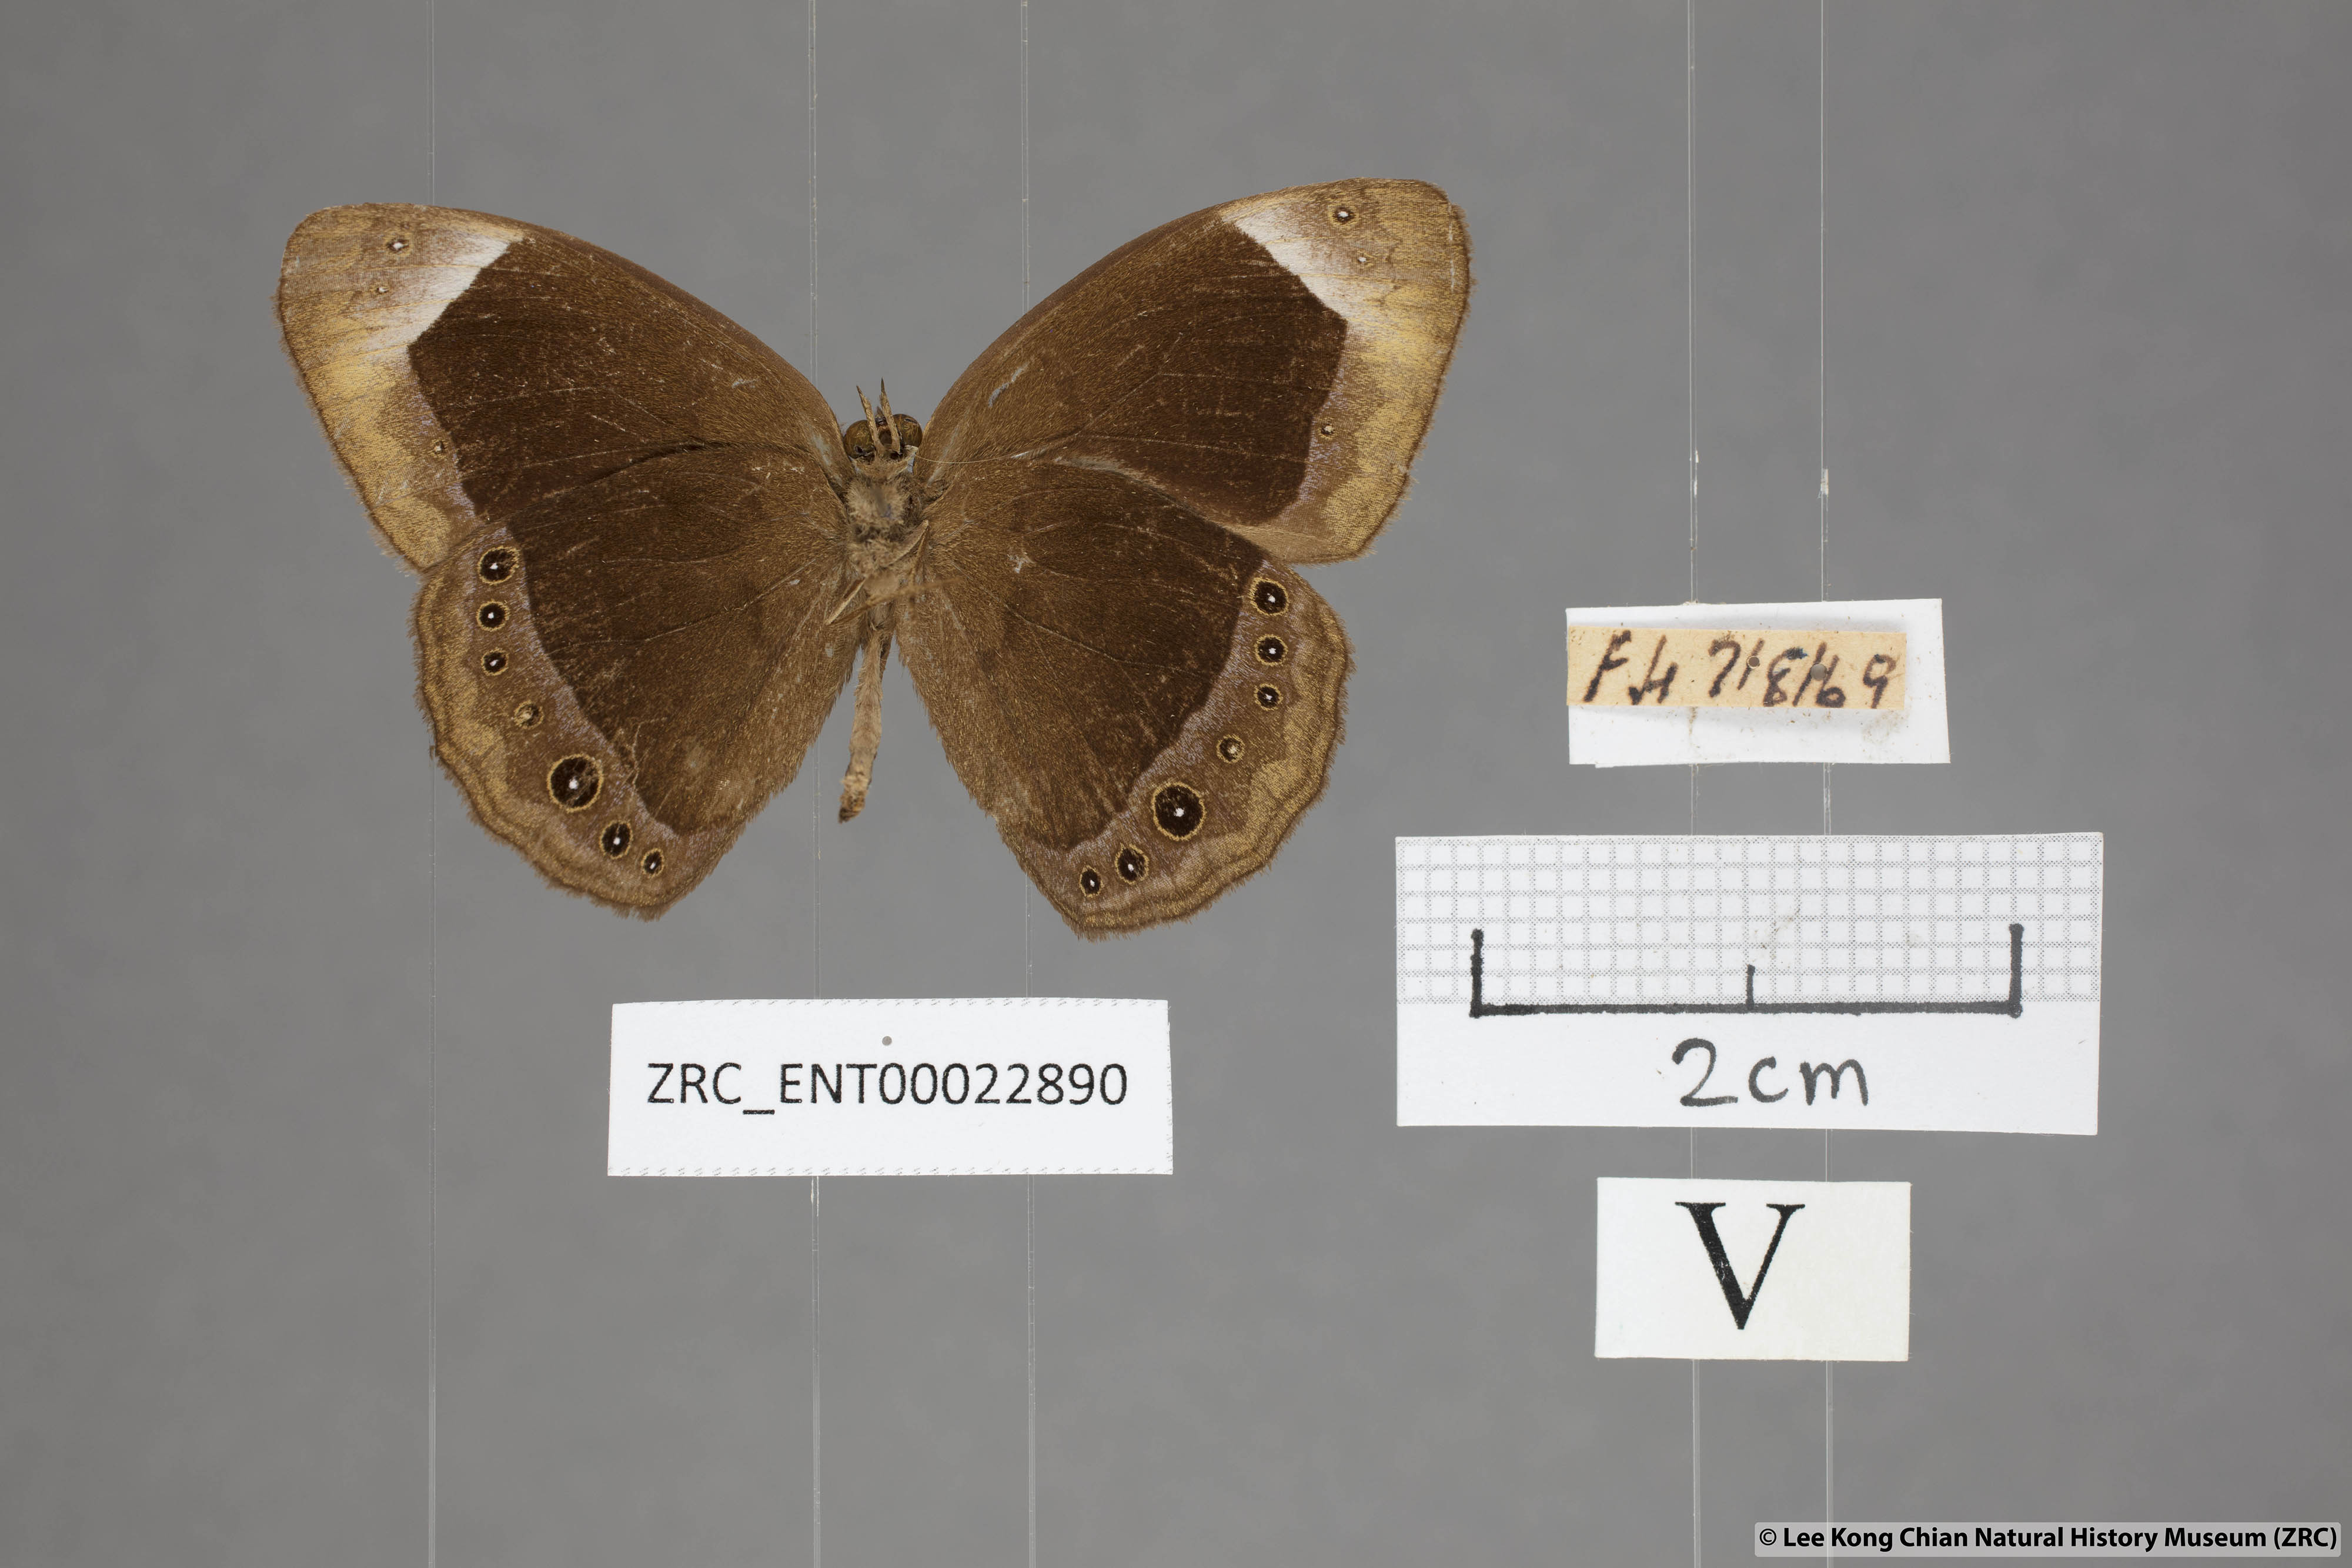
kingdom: Animalia
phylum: Arthropoda
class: Insecta
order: Lepidoptera
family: Nymphalidae
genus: Mycalesis
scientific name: Mycalesis anaxias
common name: White-bar bushbrown
